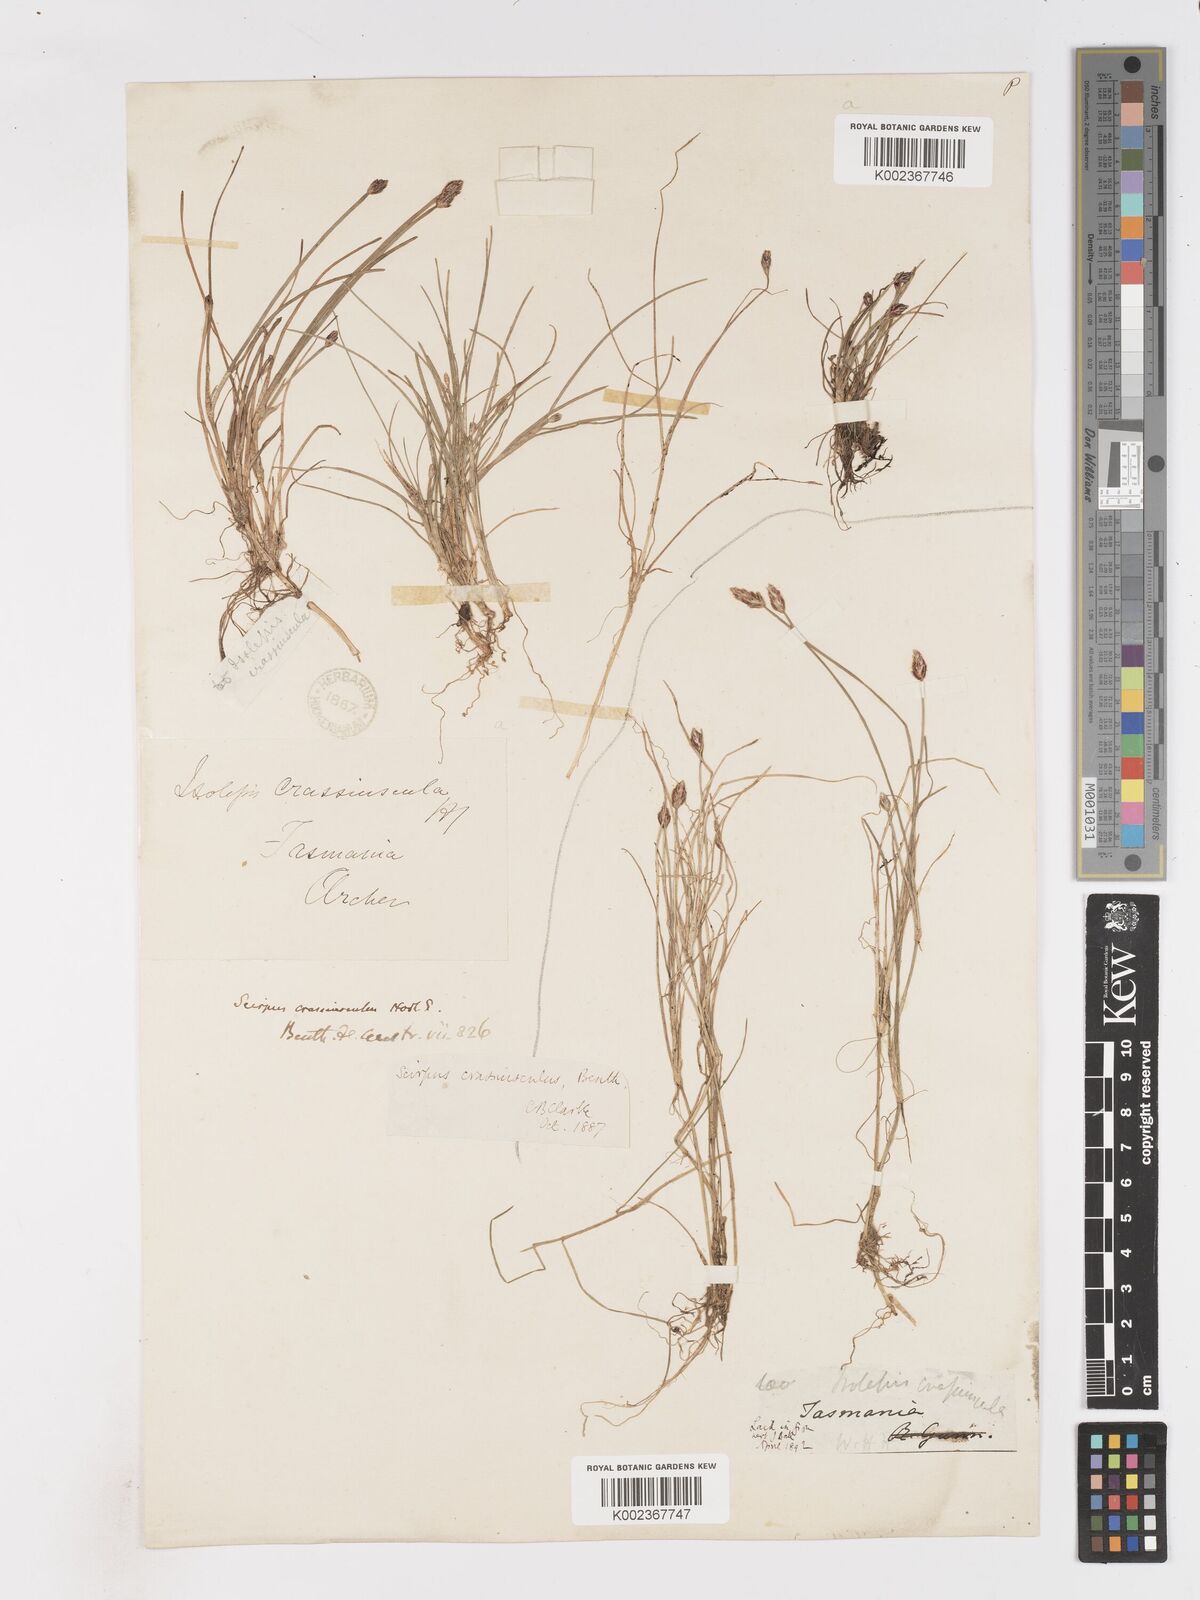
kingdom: Plantae
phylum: Tracheophyta
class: Liliopsida
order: Poales
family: Cyperaceae
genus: Isolepis
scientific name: Isolepis crassiuscula
